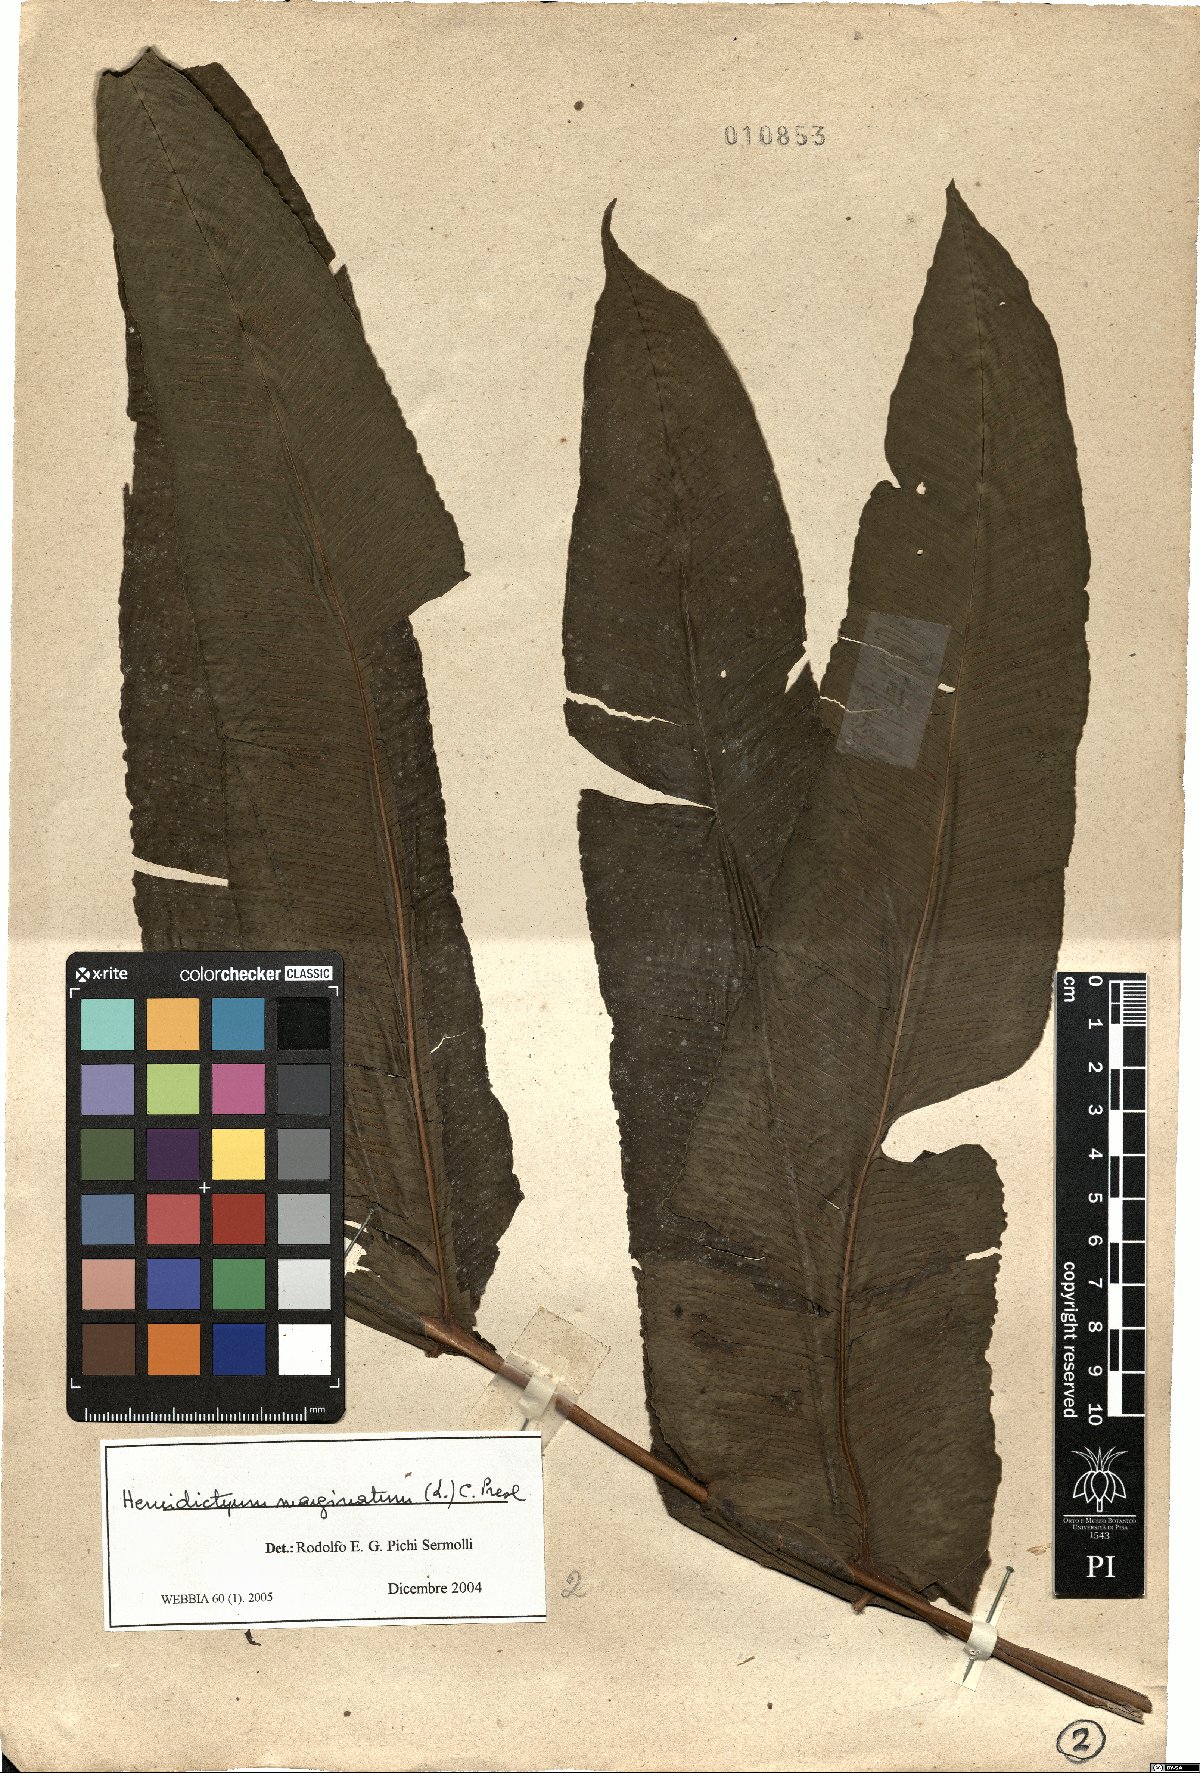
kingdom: Plantae
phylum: Tracheophyta
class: Polypodiopsida
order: Polypodiales
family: Hemidictyaceae
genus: Hemidictyum
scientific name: Hemidictyum marginatum
